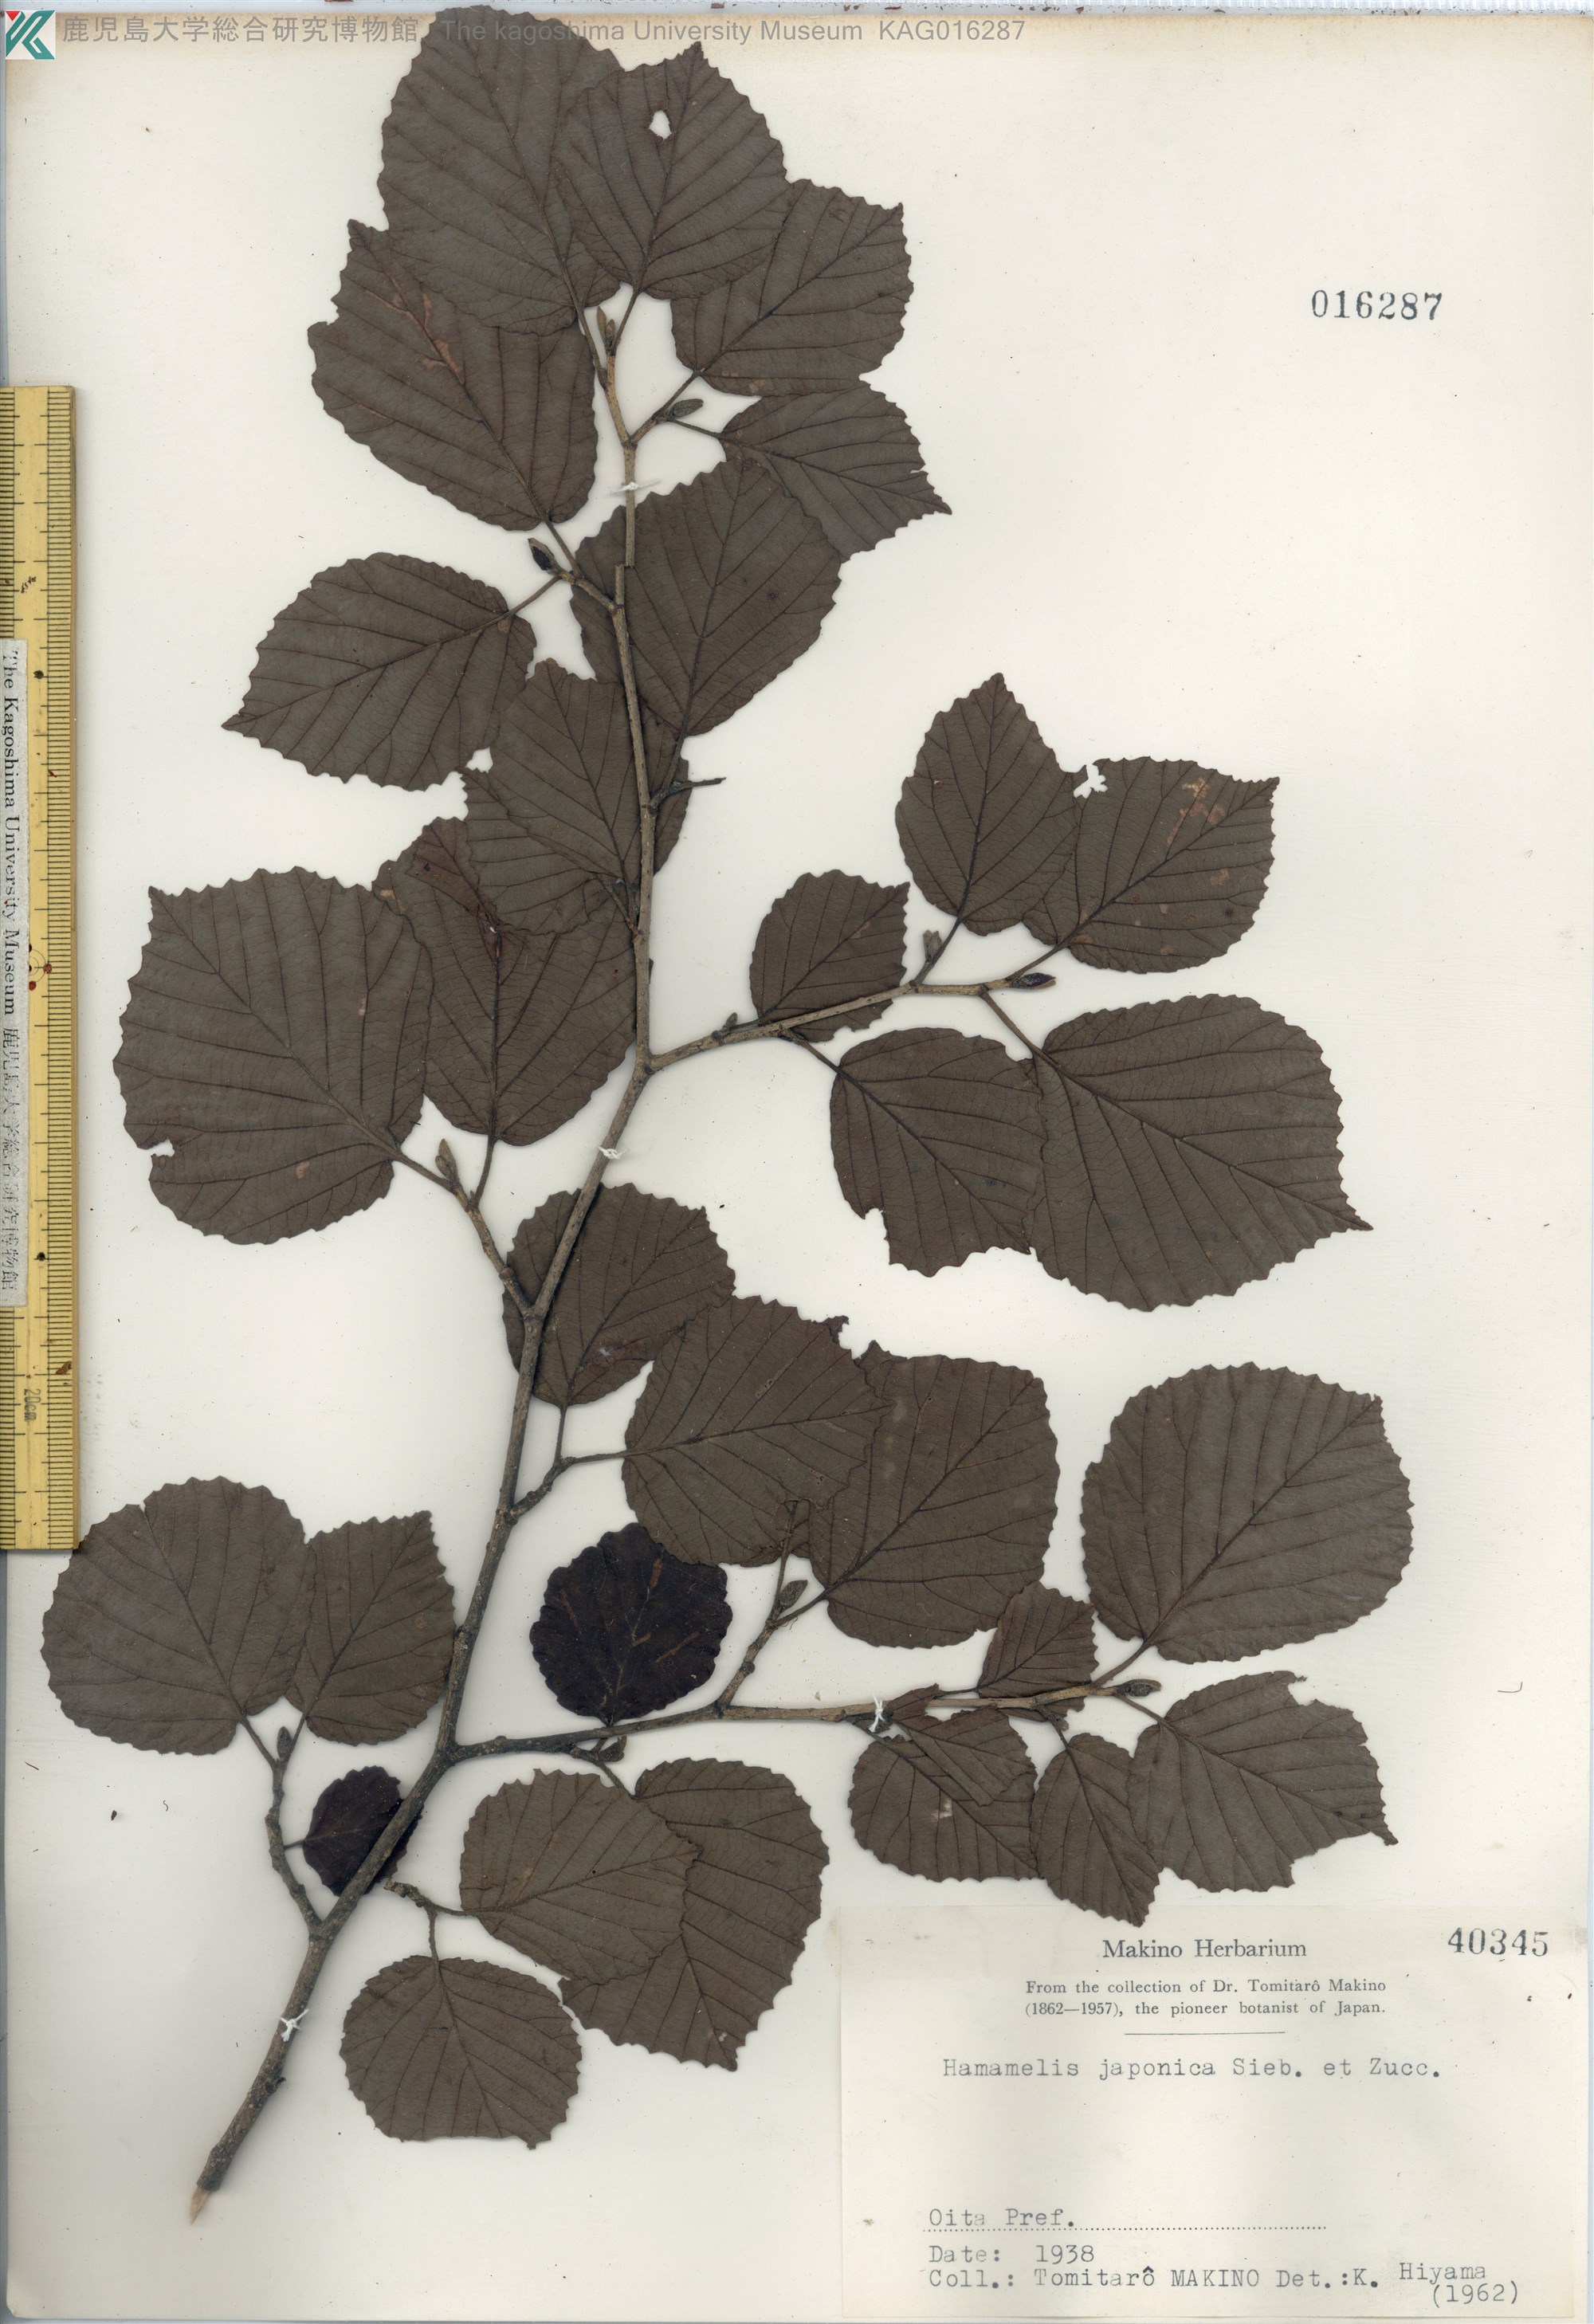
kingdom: Plantae
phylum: Tracheophyta
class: Magnoliopsida
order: Saxifragales
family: Hamamelidaceae
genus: Hamamelis
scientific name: Hamamelis japonica
